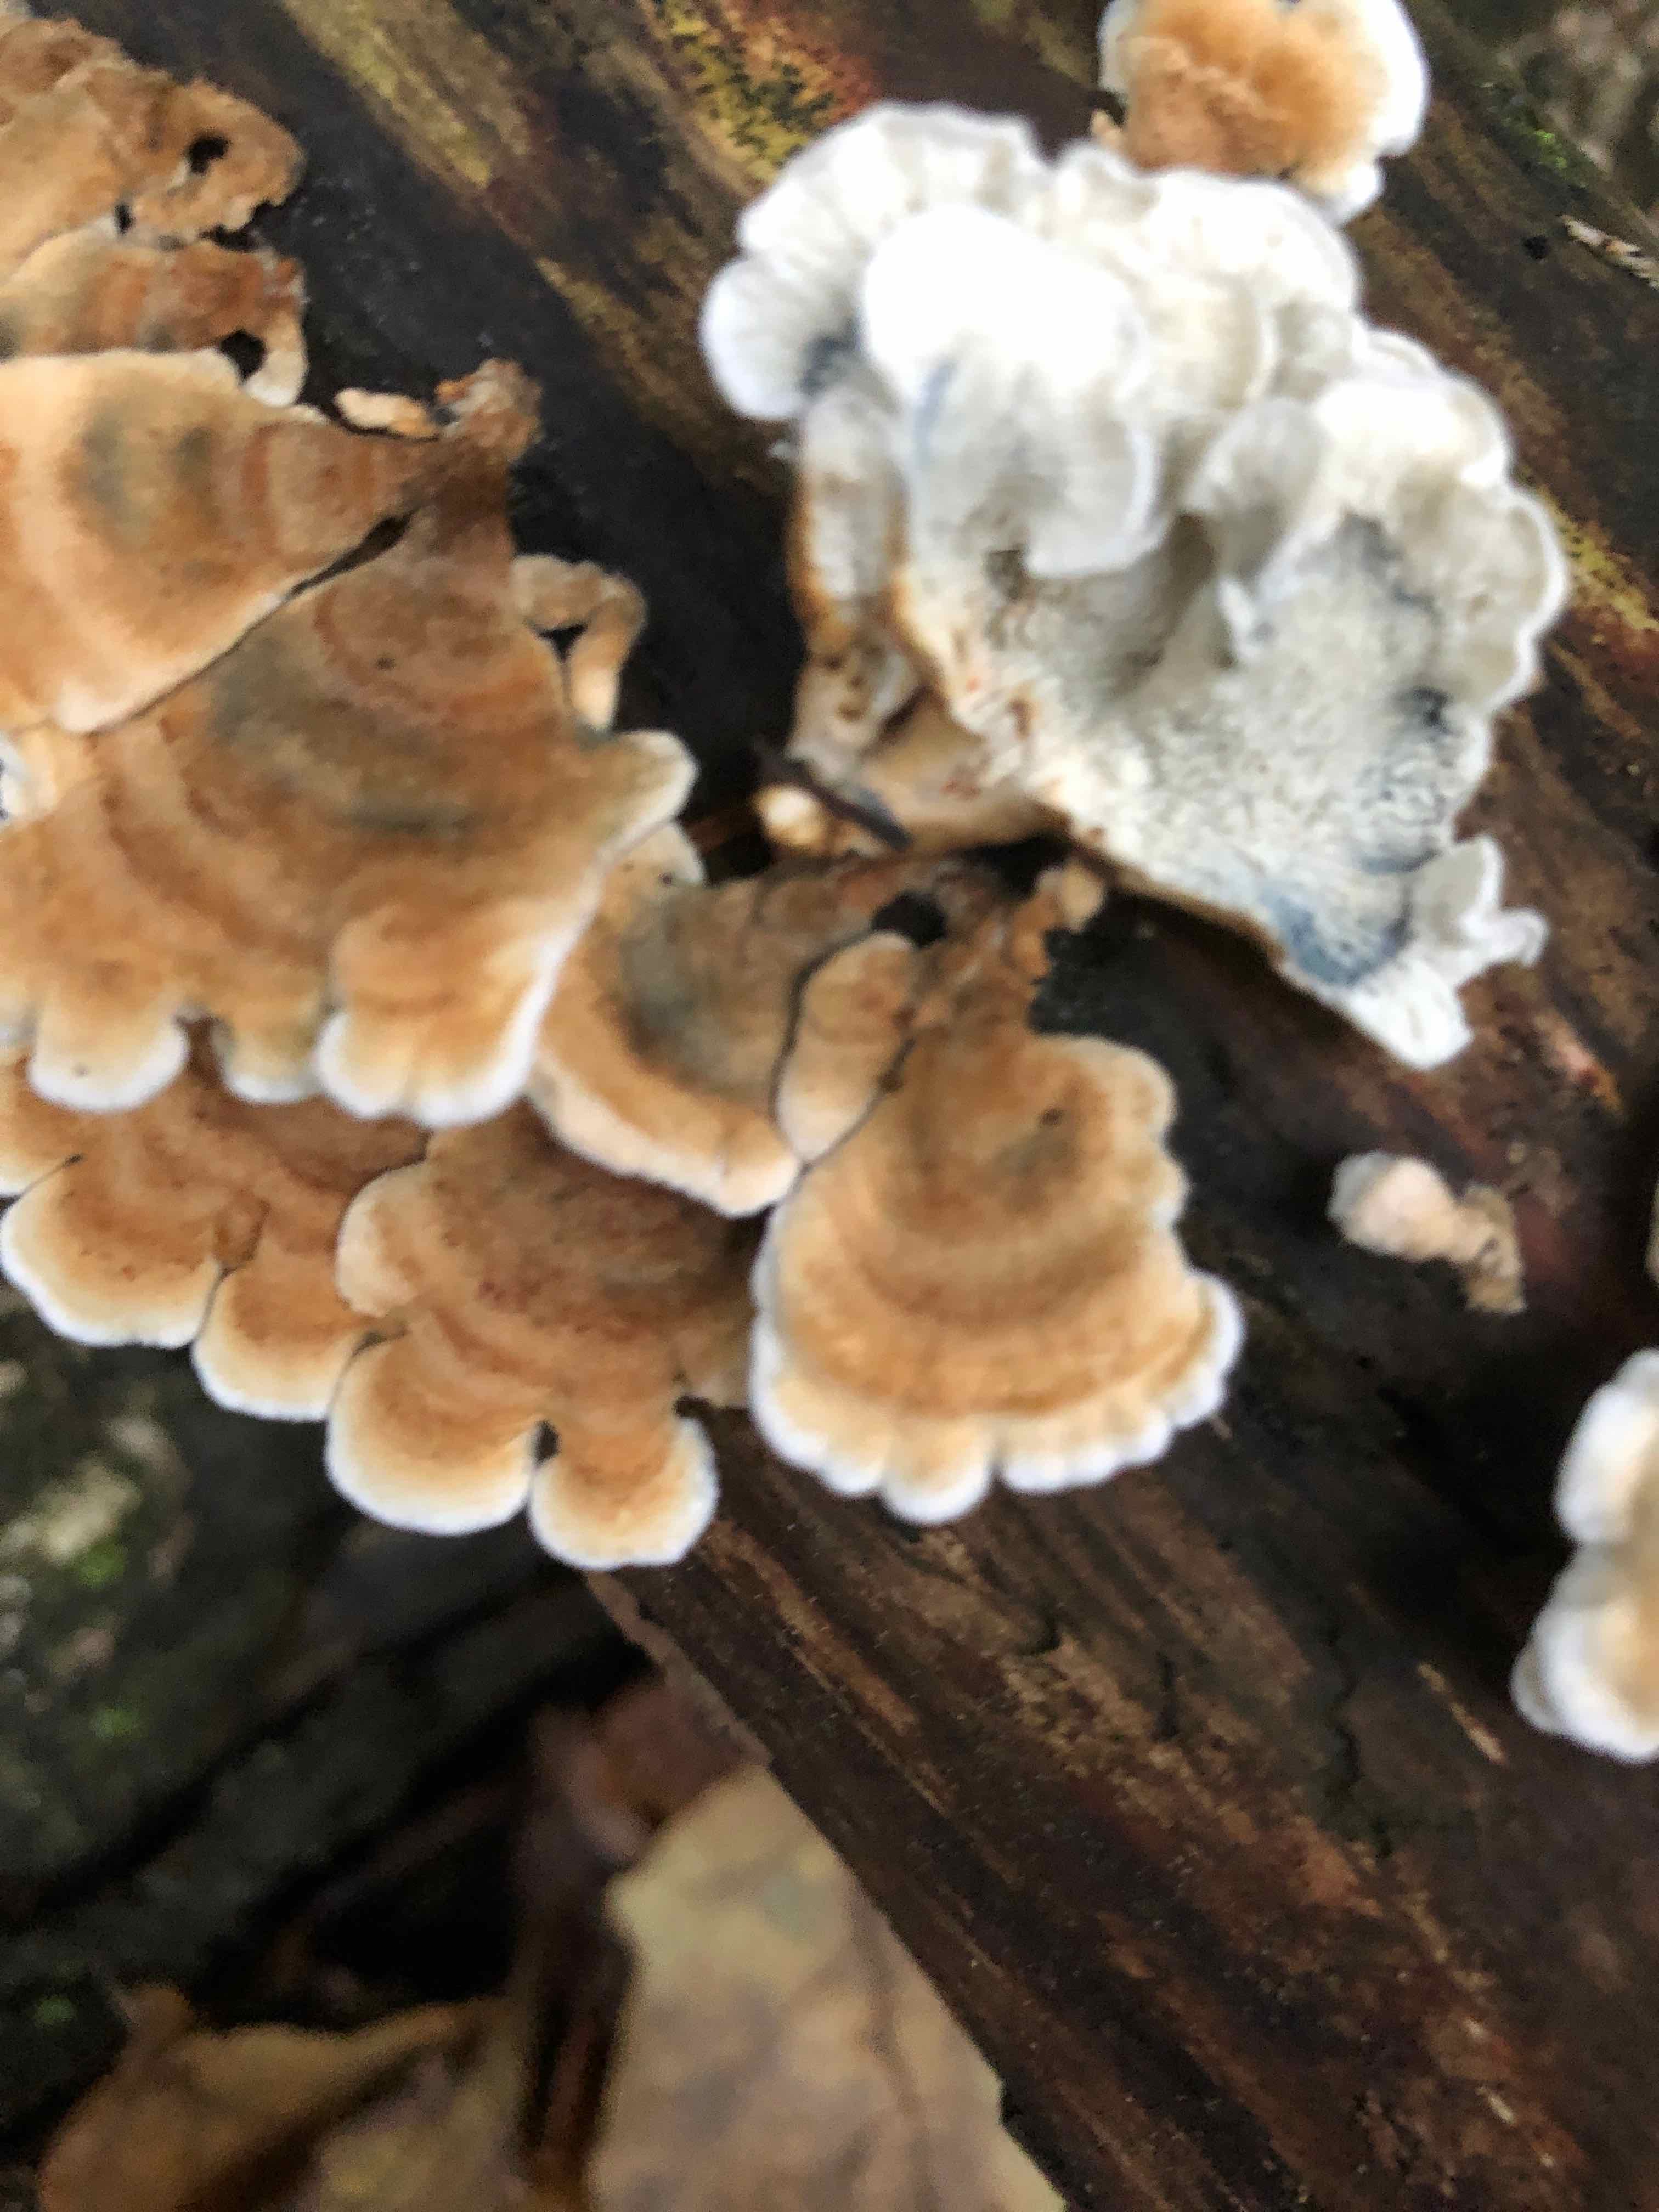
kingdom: Fungi
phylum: Basidiomycota
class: Agaricomycetes
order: Amylocorticiales
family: Amylocorticiaceae
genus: Plicaturopsis
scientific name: Plicaturopsis crispa
